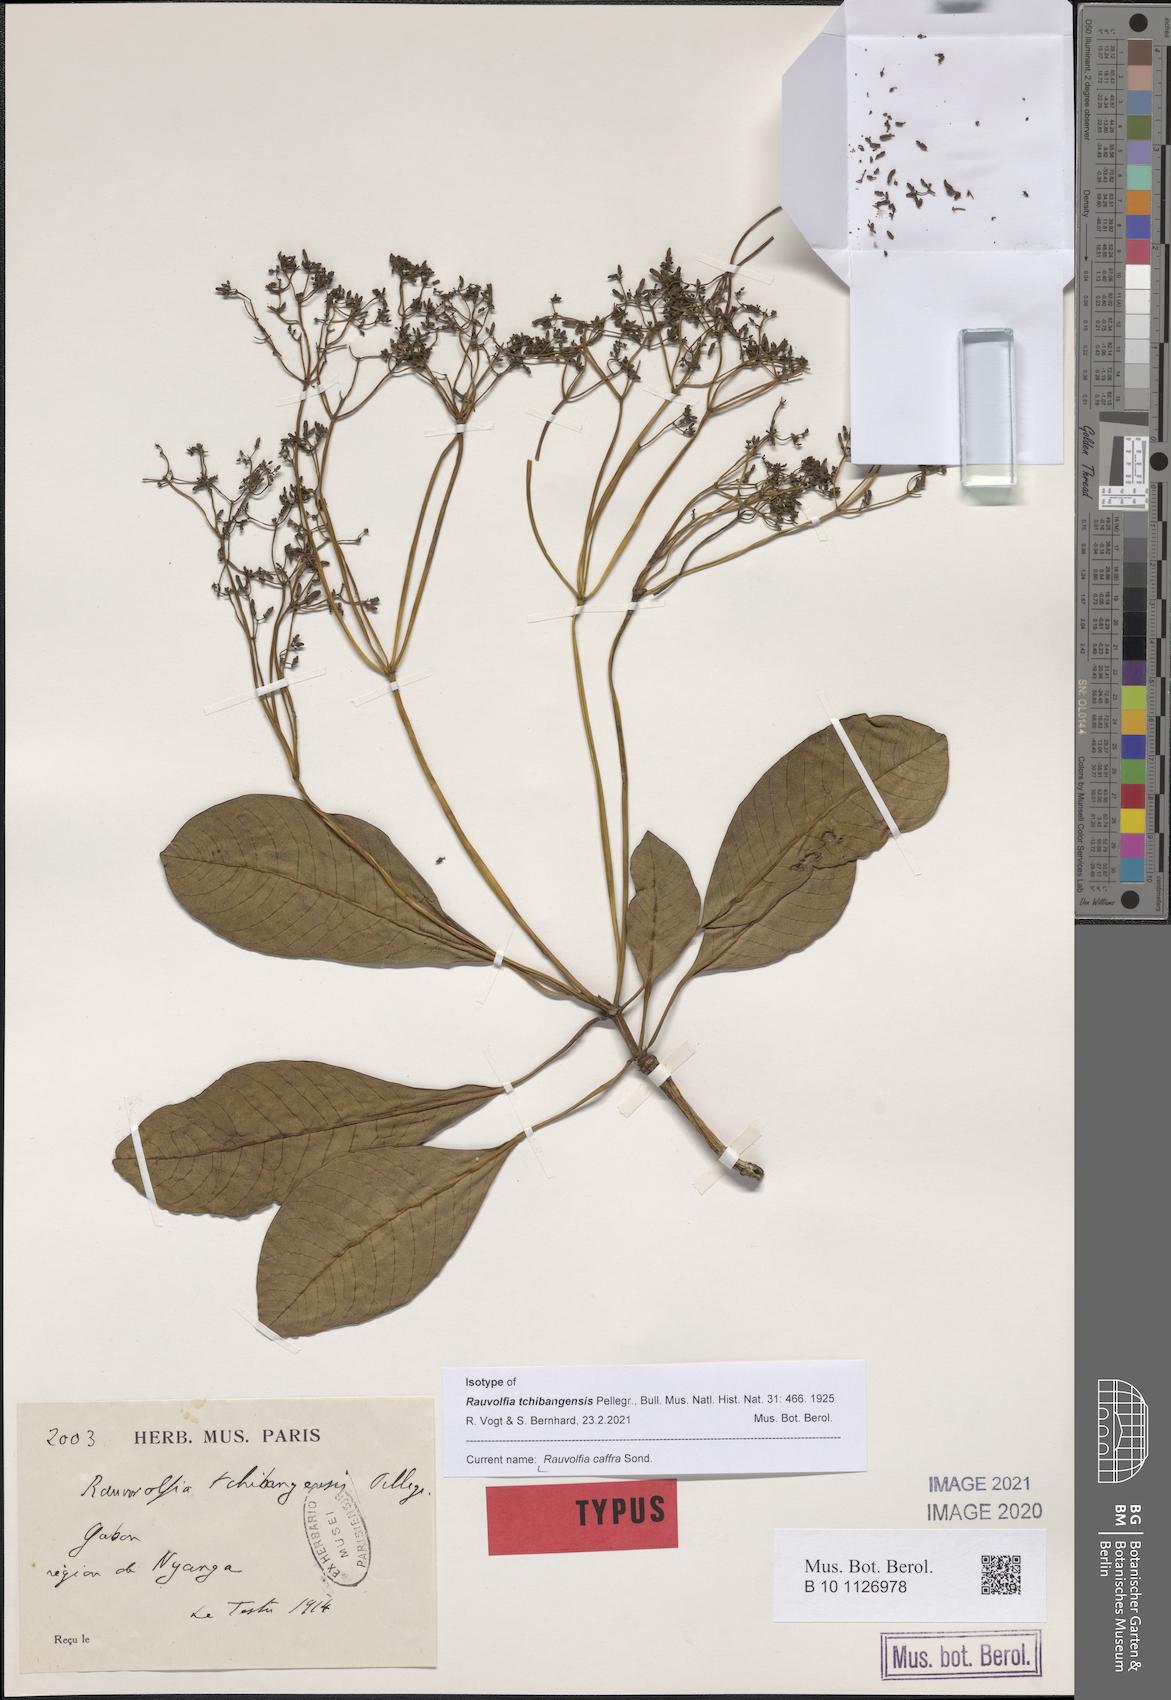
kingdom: Plantae
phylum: Tracheophyta
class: Magnoliopsida
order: Gentianales
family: Apocynaceae
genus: Rauvolfia
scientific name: Rauvolfia caffra
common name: Quininetree
